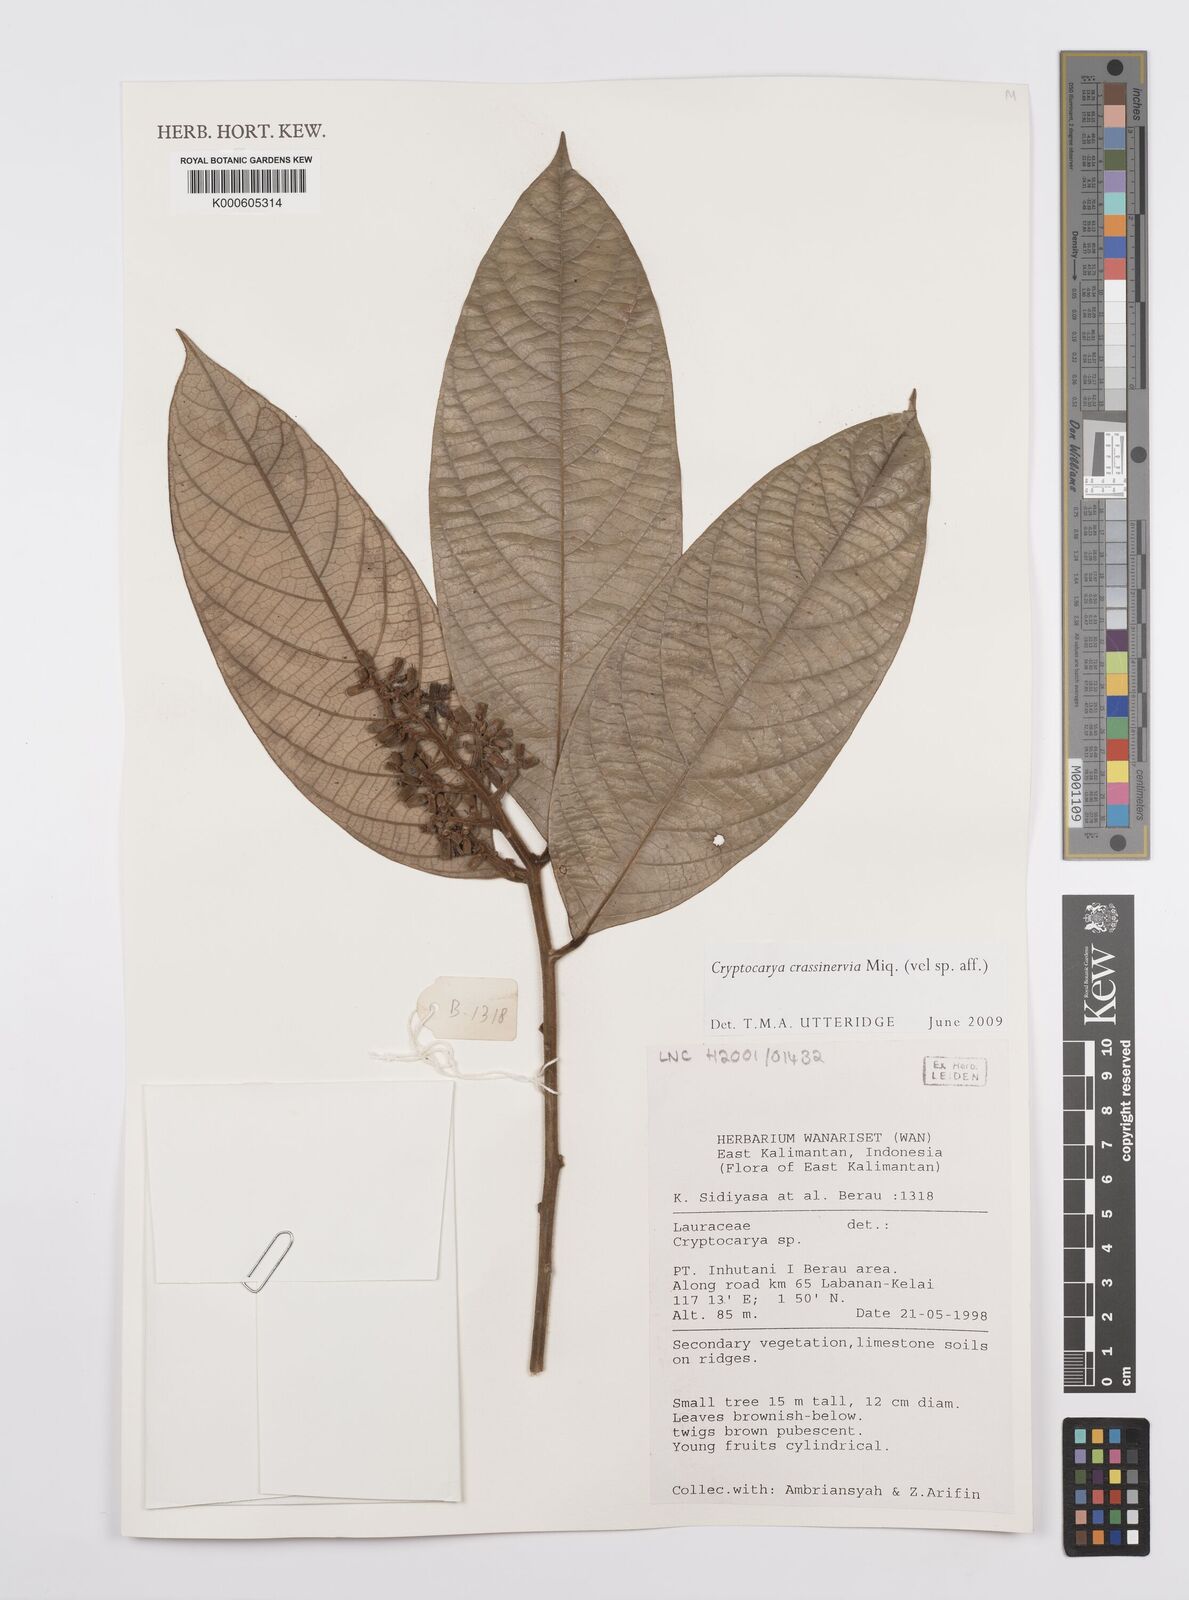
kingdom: Plantae
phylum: Tracheophyta
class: Magnoliopsida
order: Laurales
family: Lauraceae
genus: Cryptocarya
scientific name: Cryptocarya diversifolia
